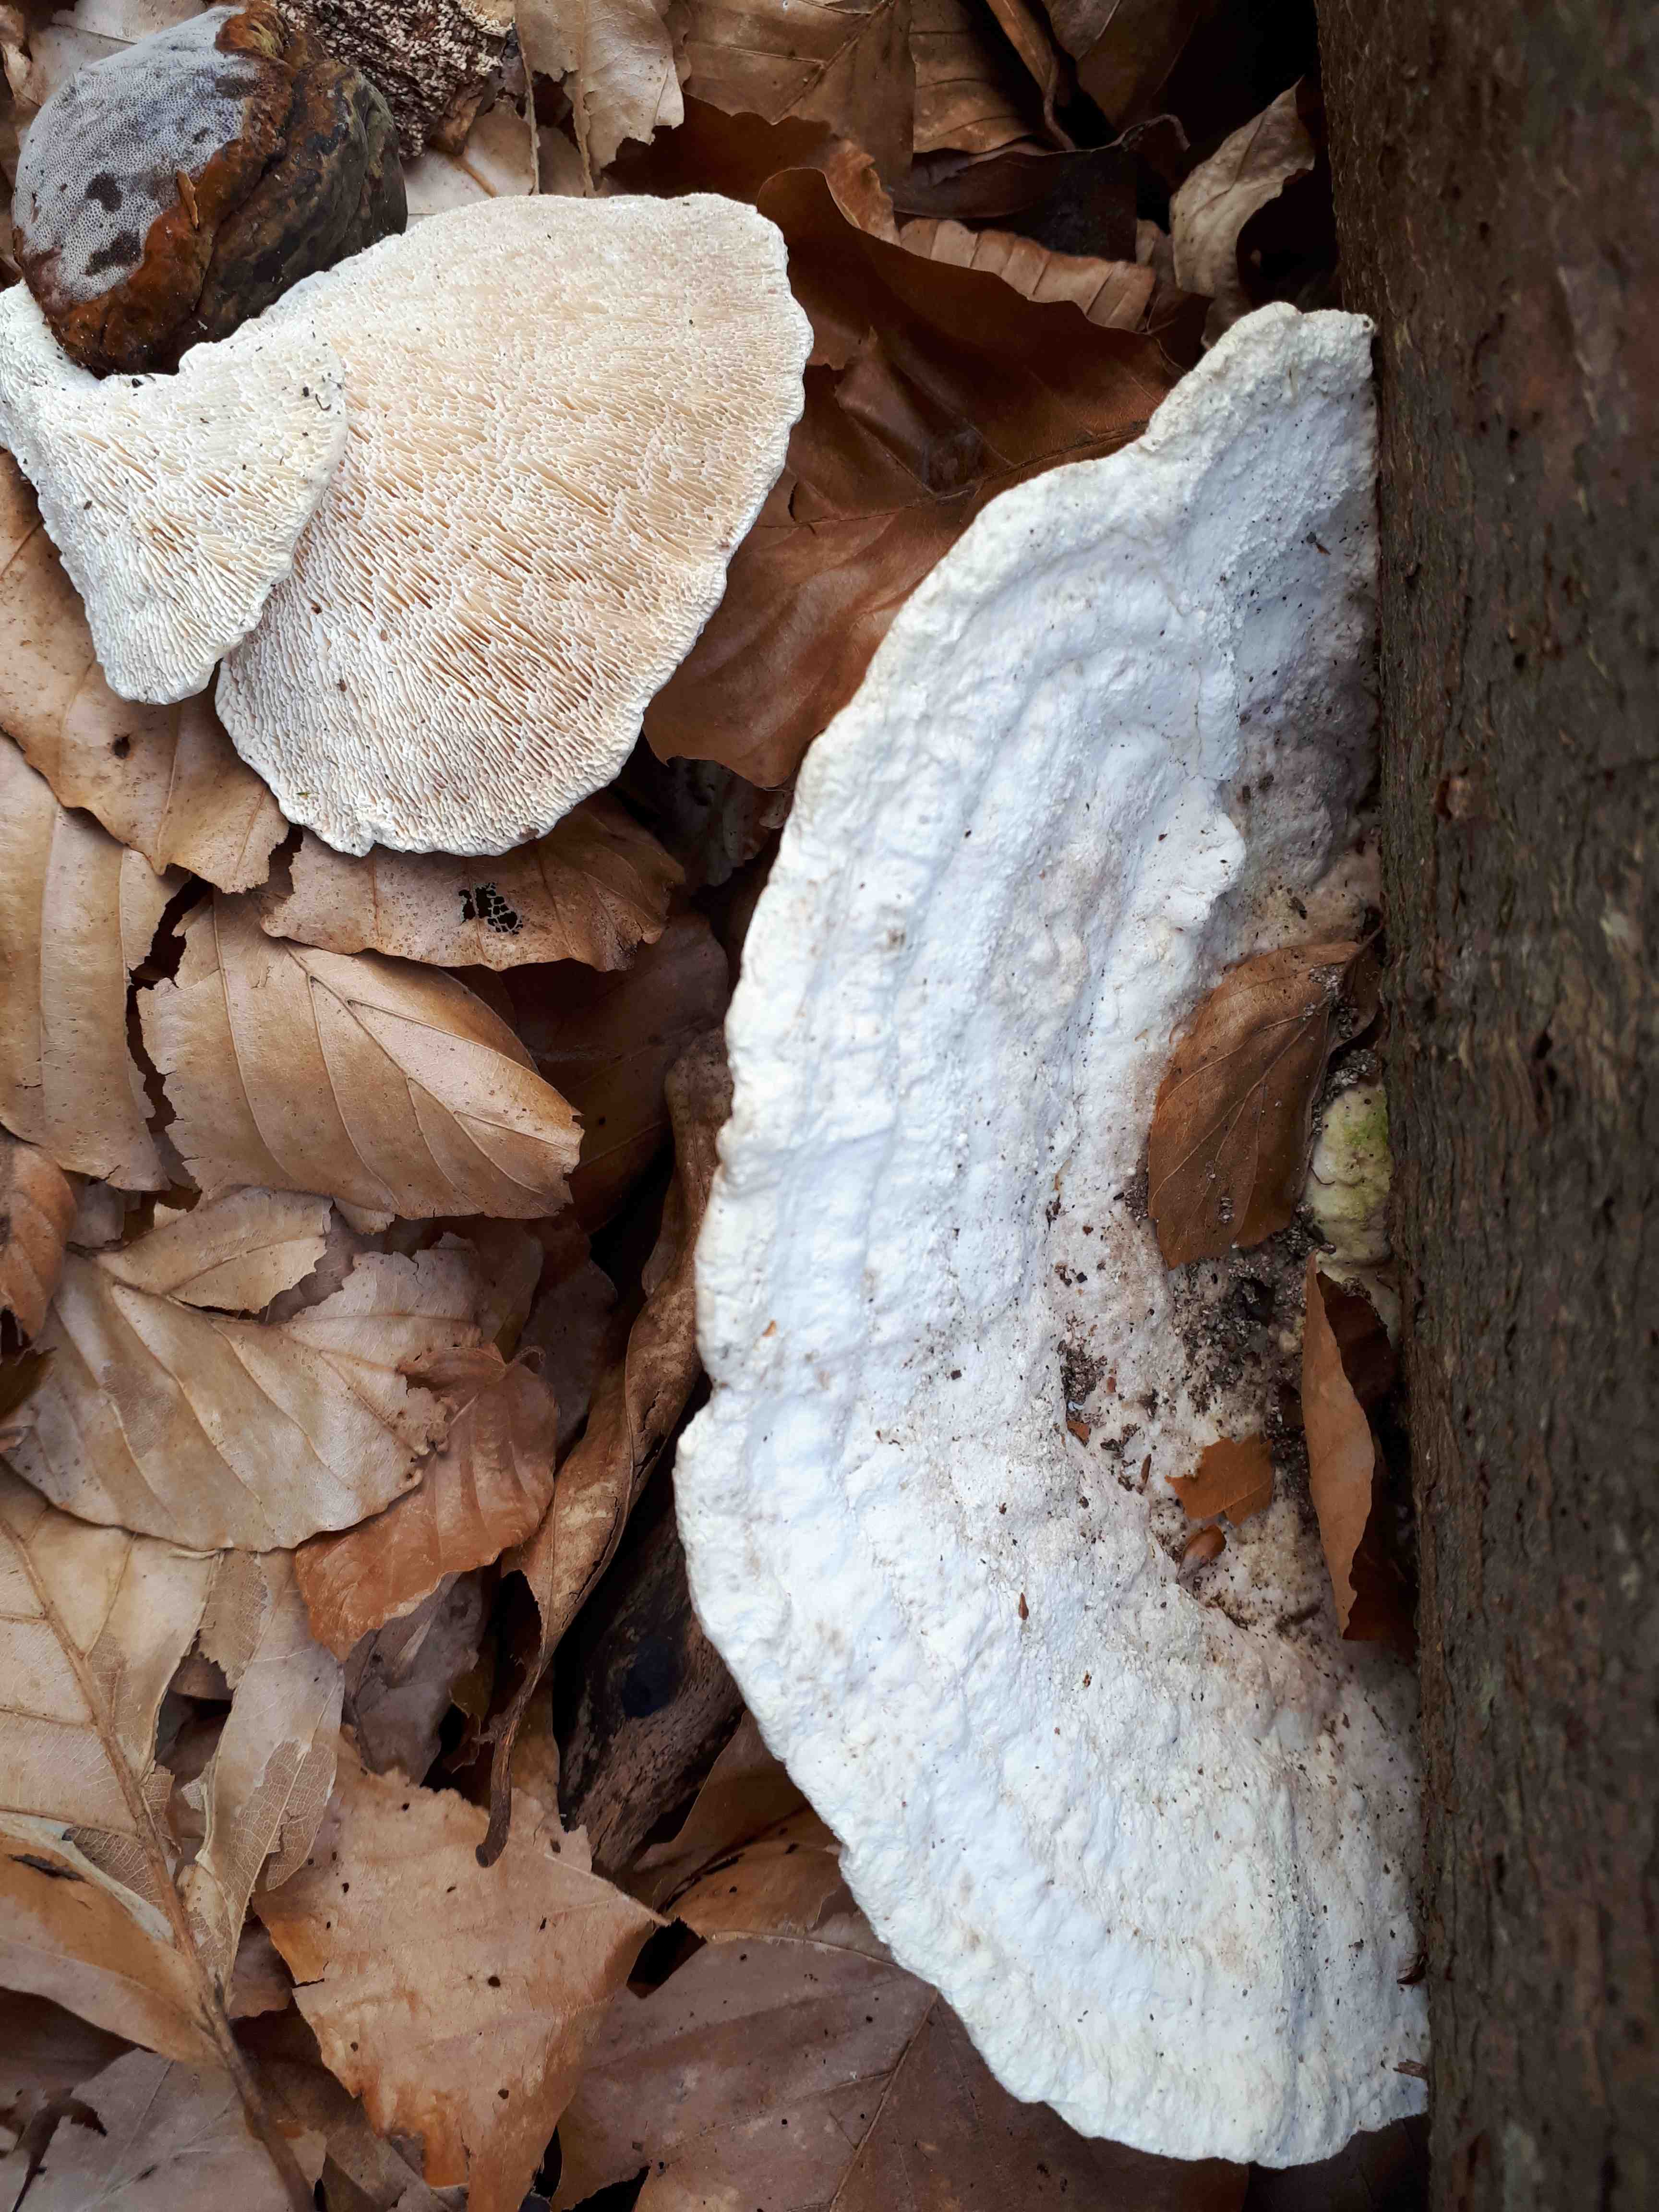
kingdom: Fungi
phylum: Basidiomycota
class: Agaricomycetes
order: Polyporales
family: Polyporaceae
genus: Trametes
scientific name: Trametes gibbosa
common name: puklet læderporesvamp
